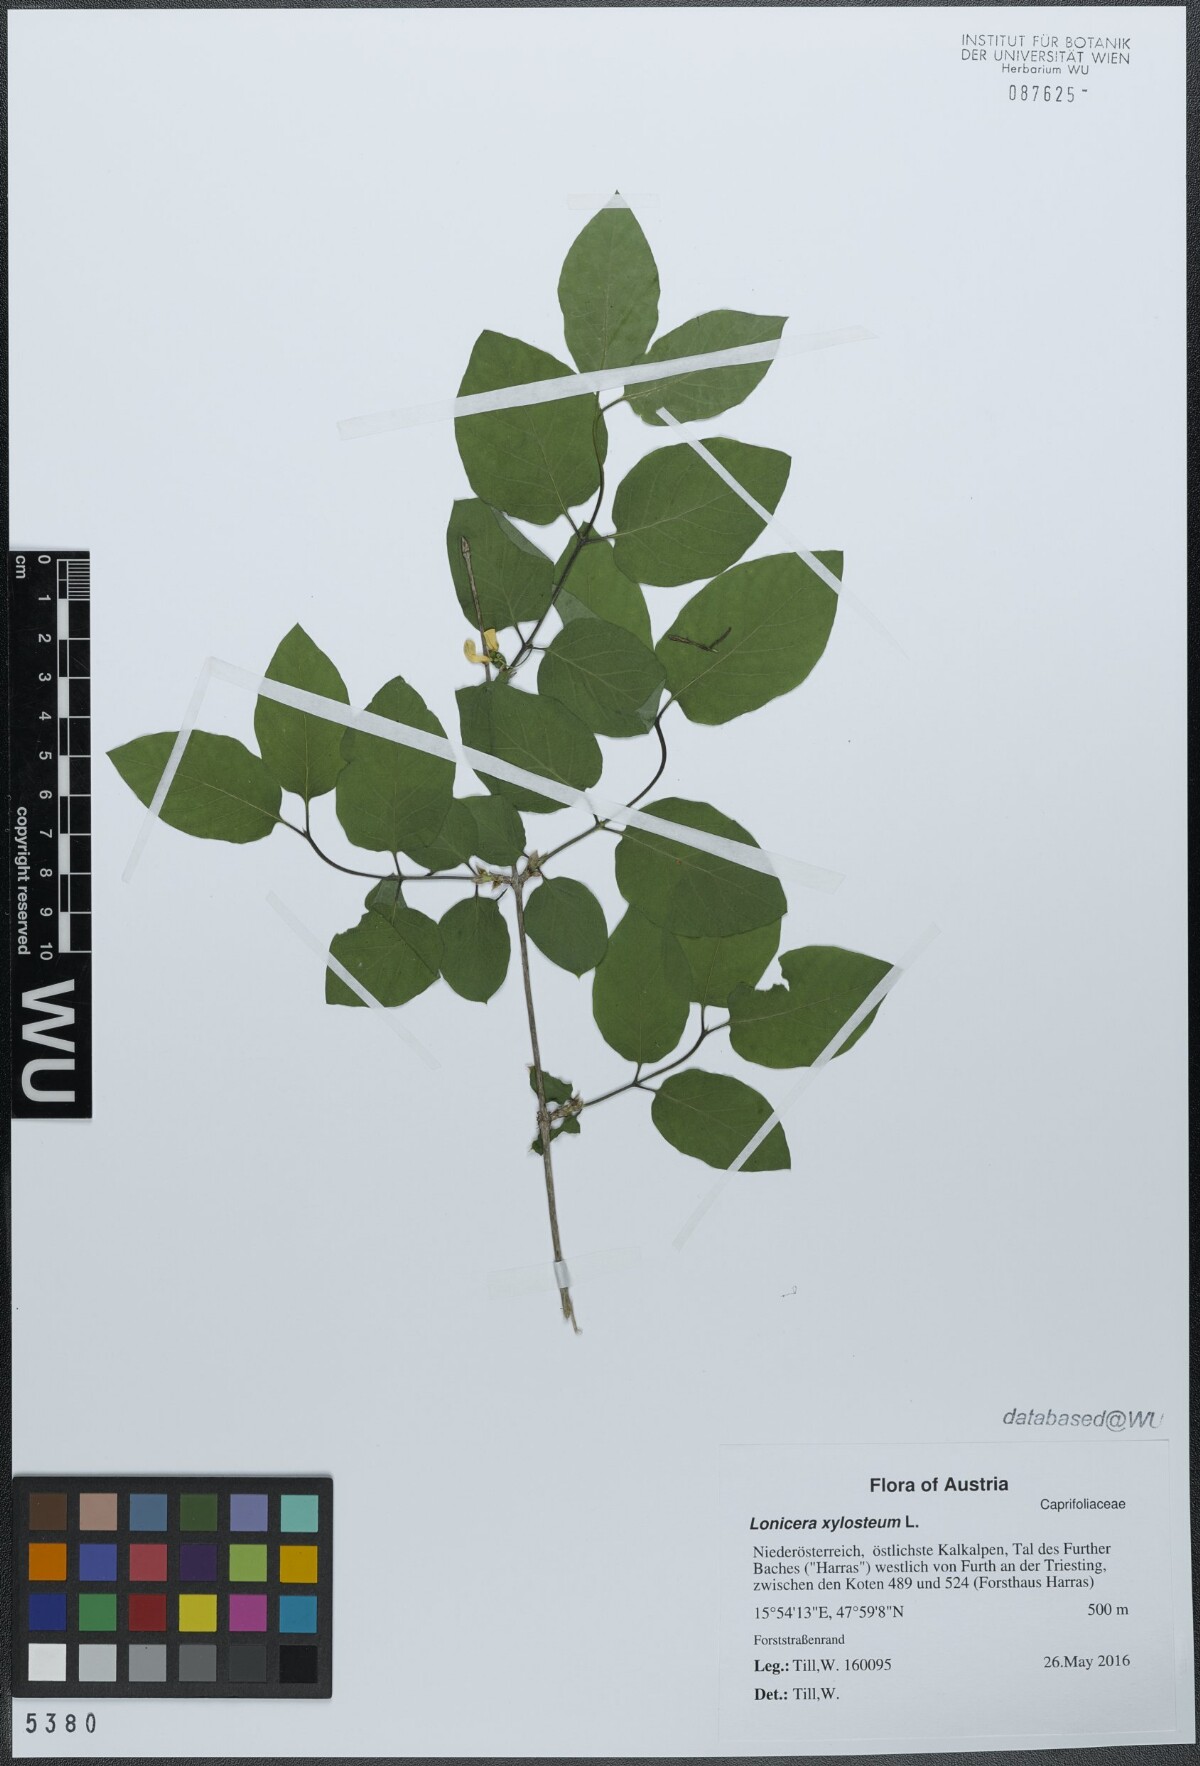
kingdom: Plantae
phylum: Tracheophyta
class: Magnoliopsida
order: Dipsacales
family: Caprifoliaceae
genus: Lonicera
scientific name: Lonicera xylosteum
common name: Fly honeysuckle
